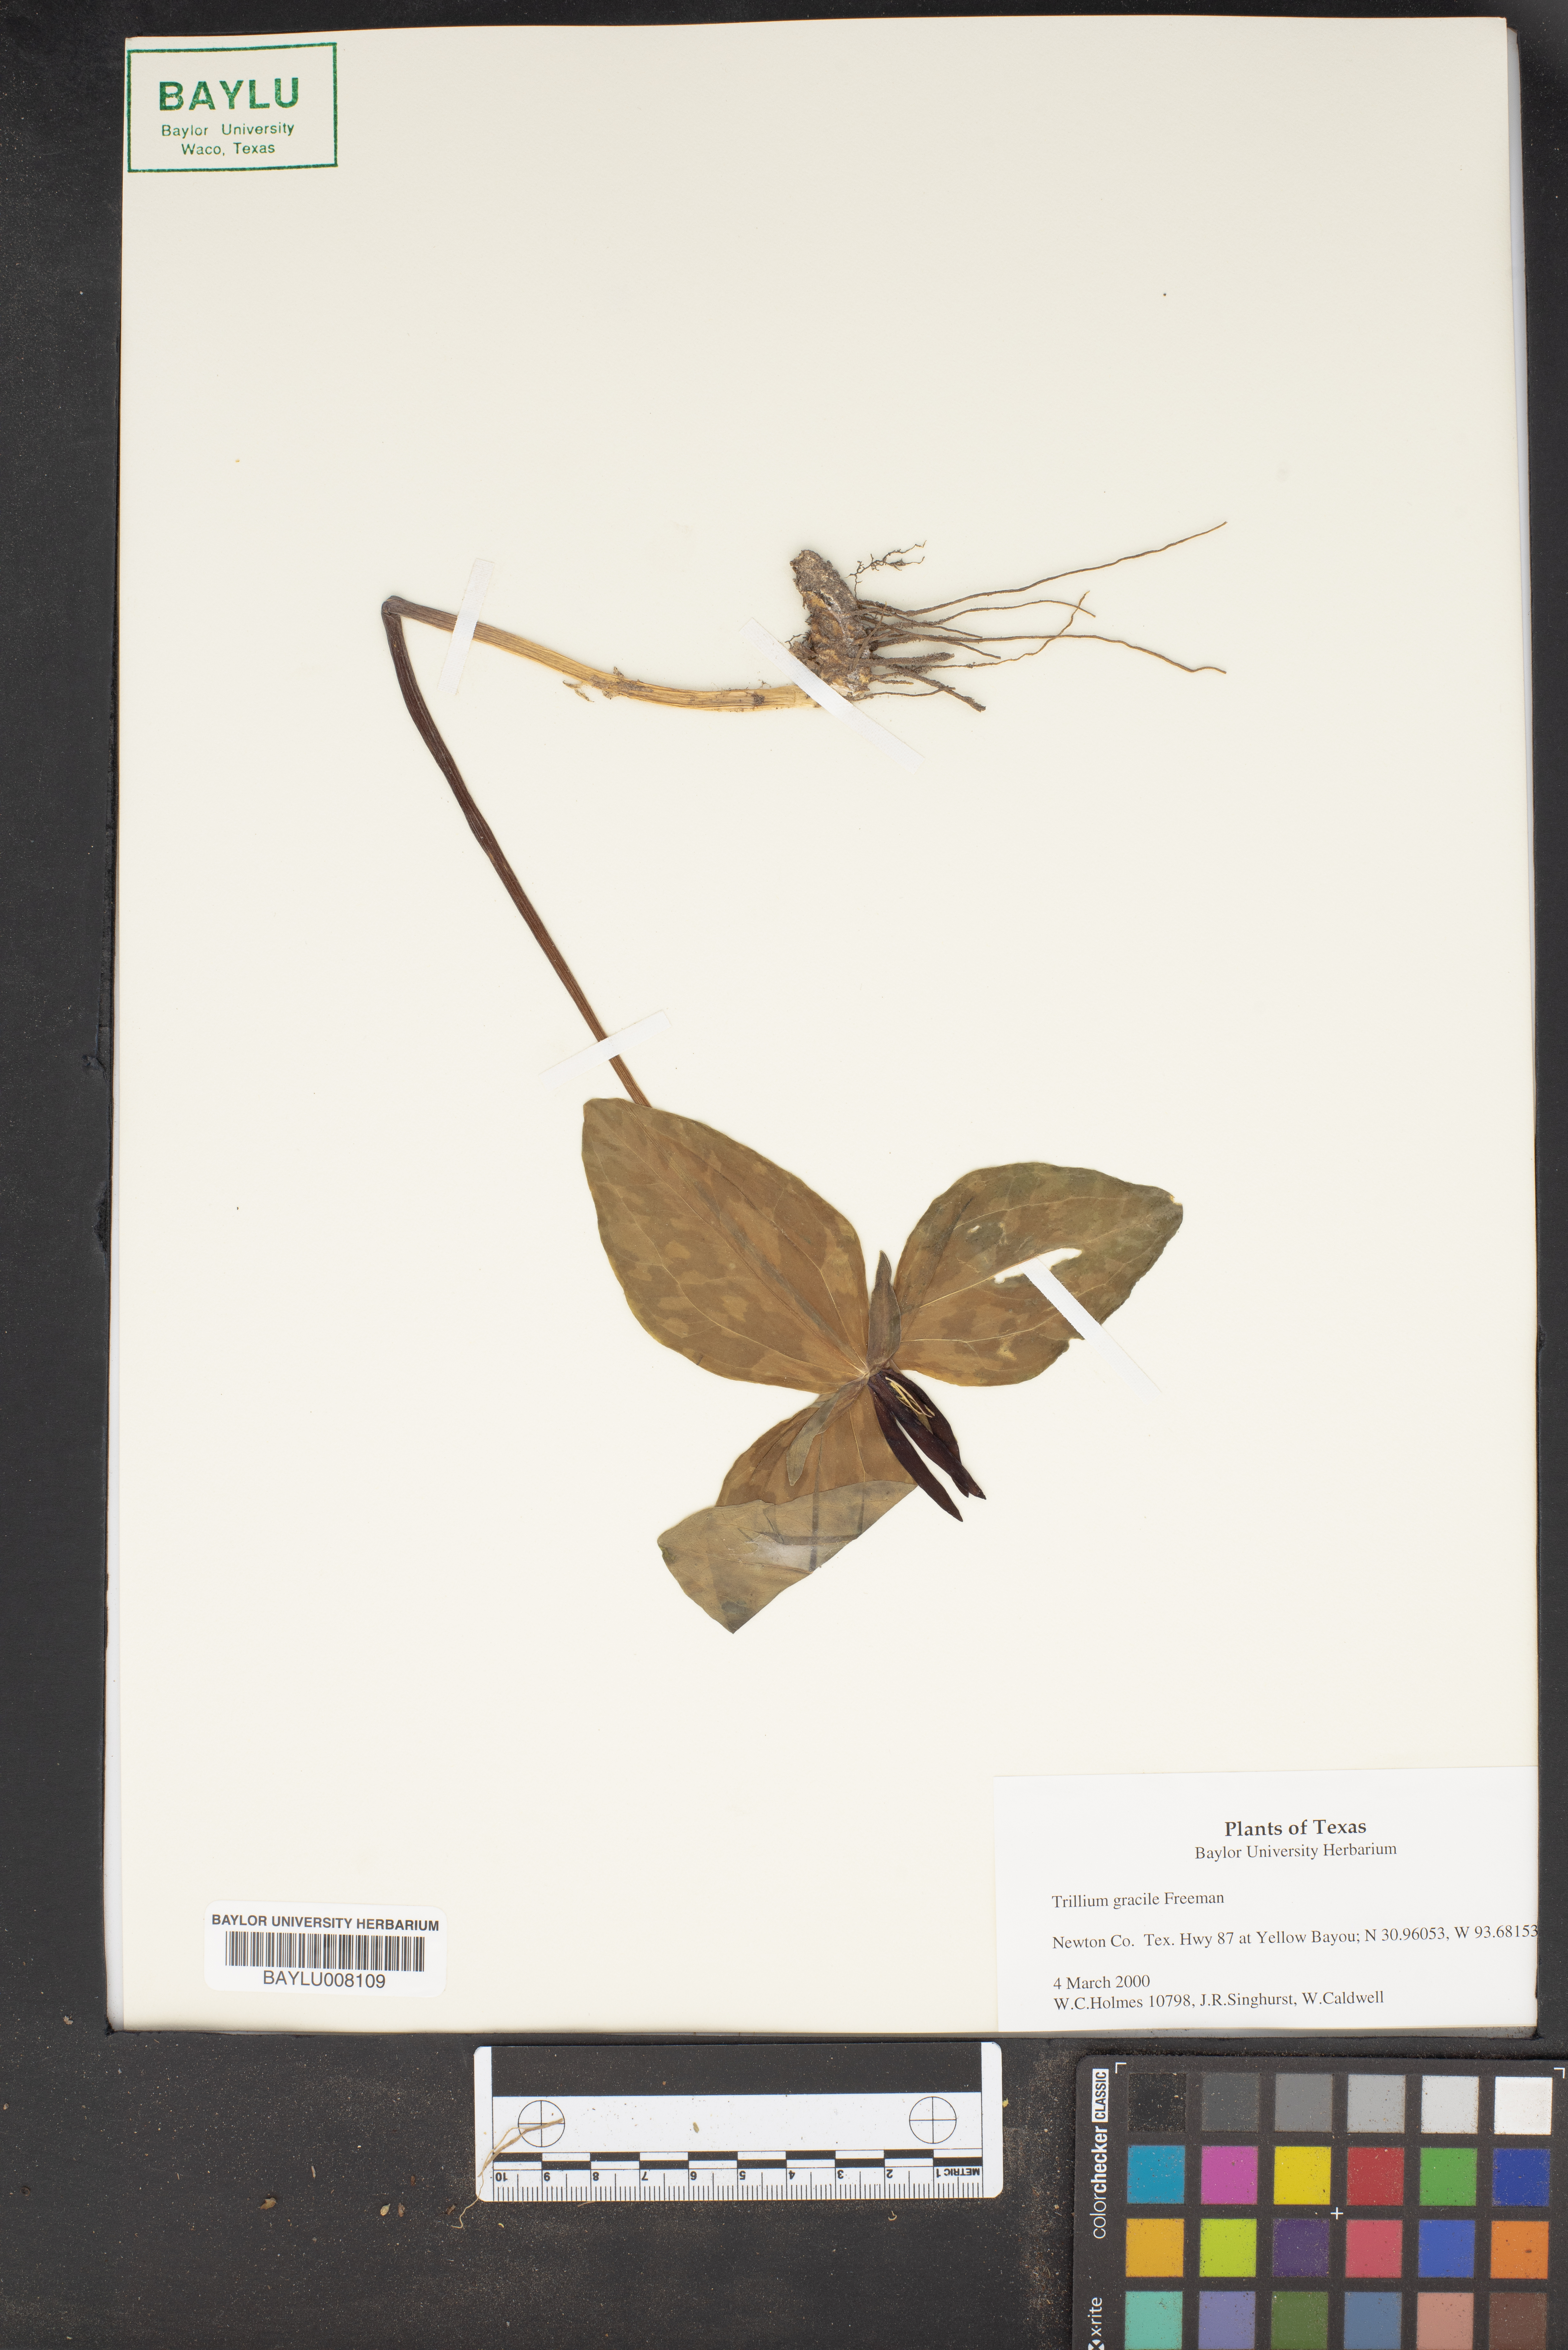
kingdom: Plantae
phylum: Tracheophyta
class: Liliopsida
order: Liliales
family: Melanthiaceae
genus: Trillium
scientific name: Trillium gracile
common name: Graceful trillium
